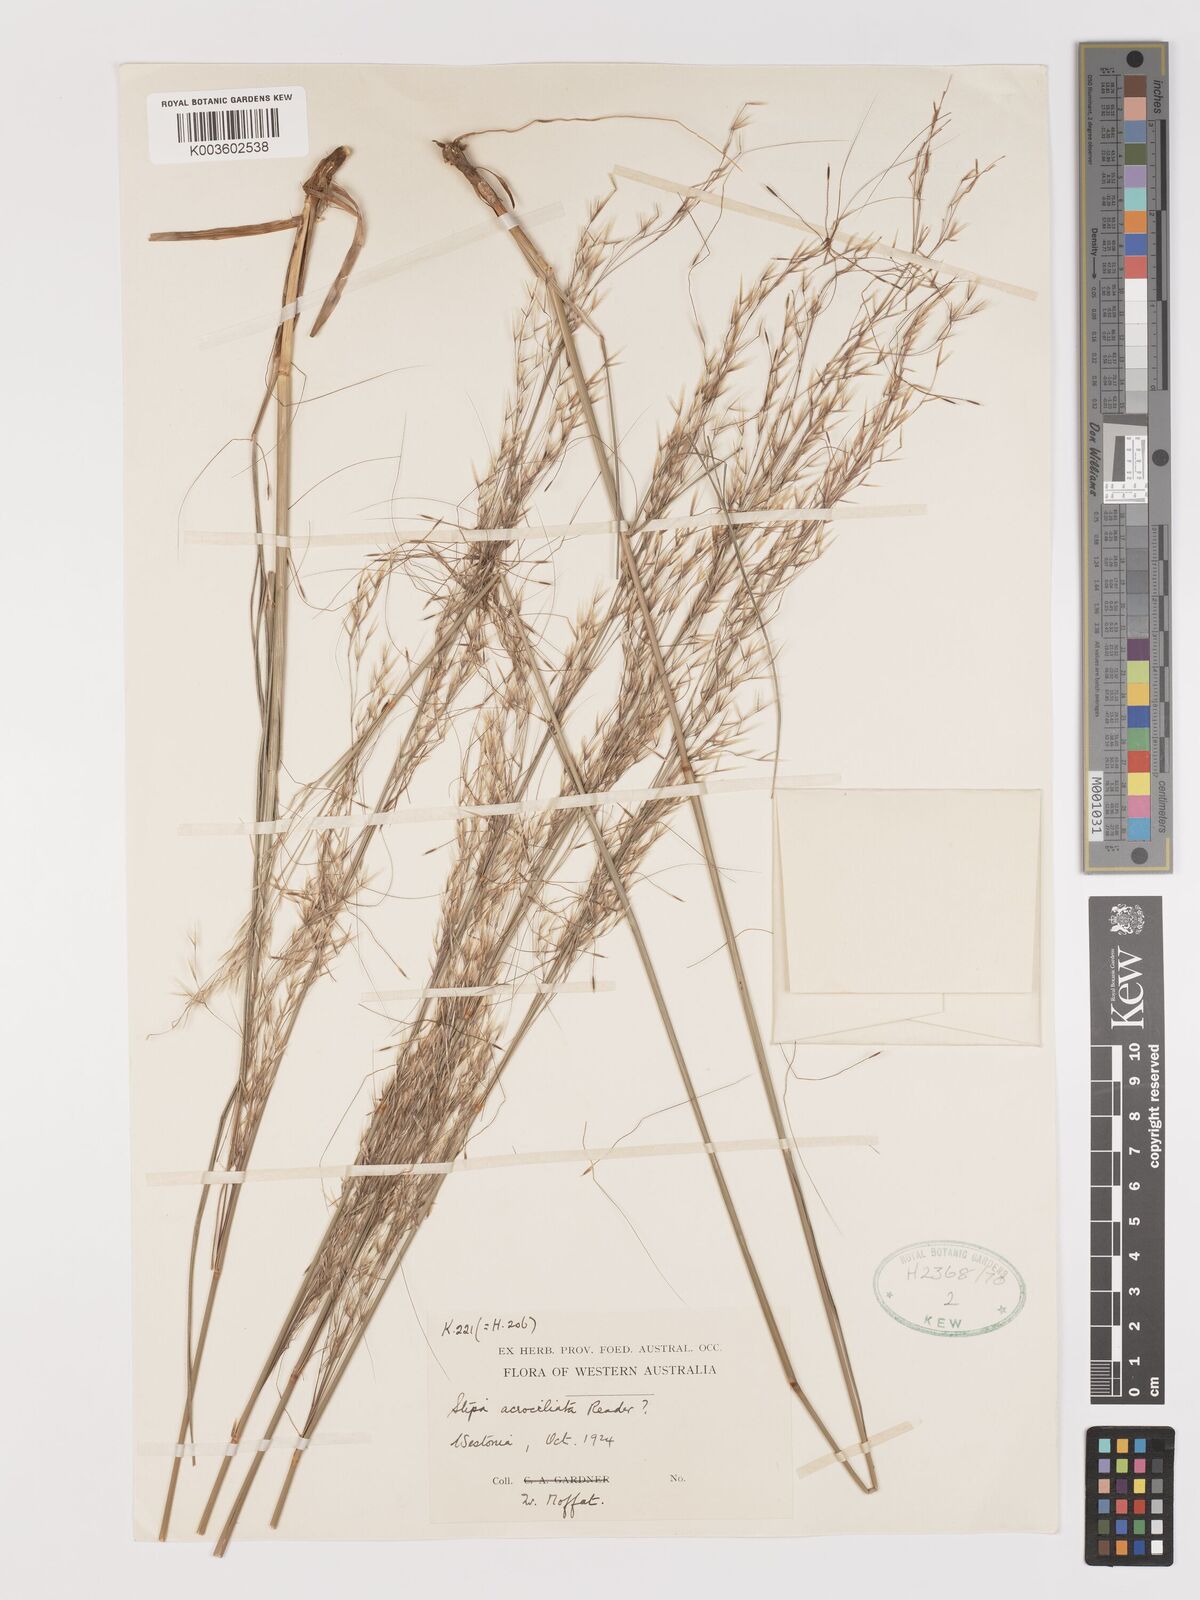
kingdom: Plantae
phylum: Tracheophyta
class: Liliopsida
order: Poales
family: Poaceae
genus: Austrostipa
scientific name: Austrostipa acrociliata
